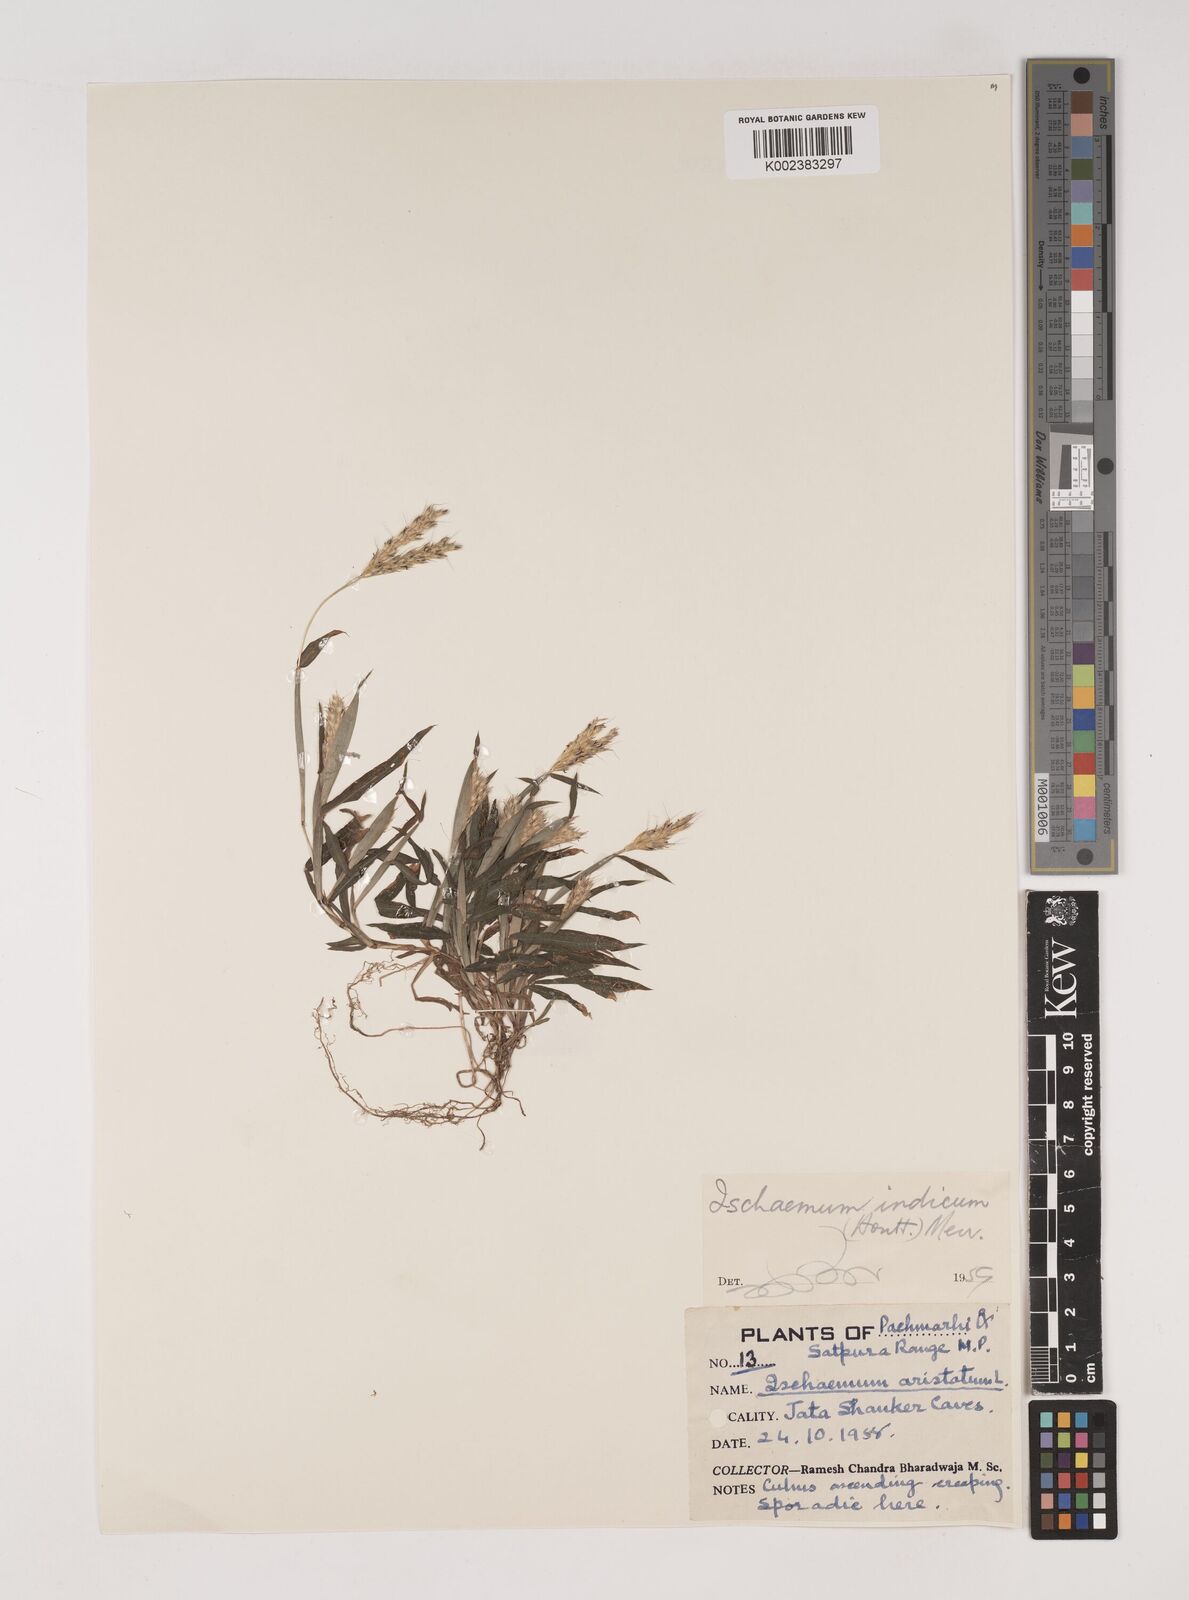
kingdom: Plantae
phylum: Tracheophyta
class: Liliopsida
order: Poales
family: Poaceae
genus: Polytrias
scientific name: Polytrias indica
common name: Indian murainagrass
